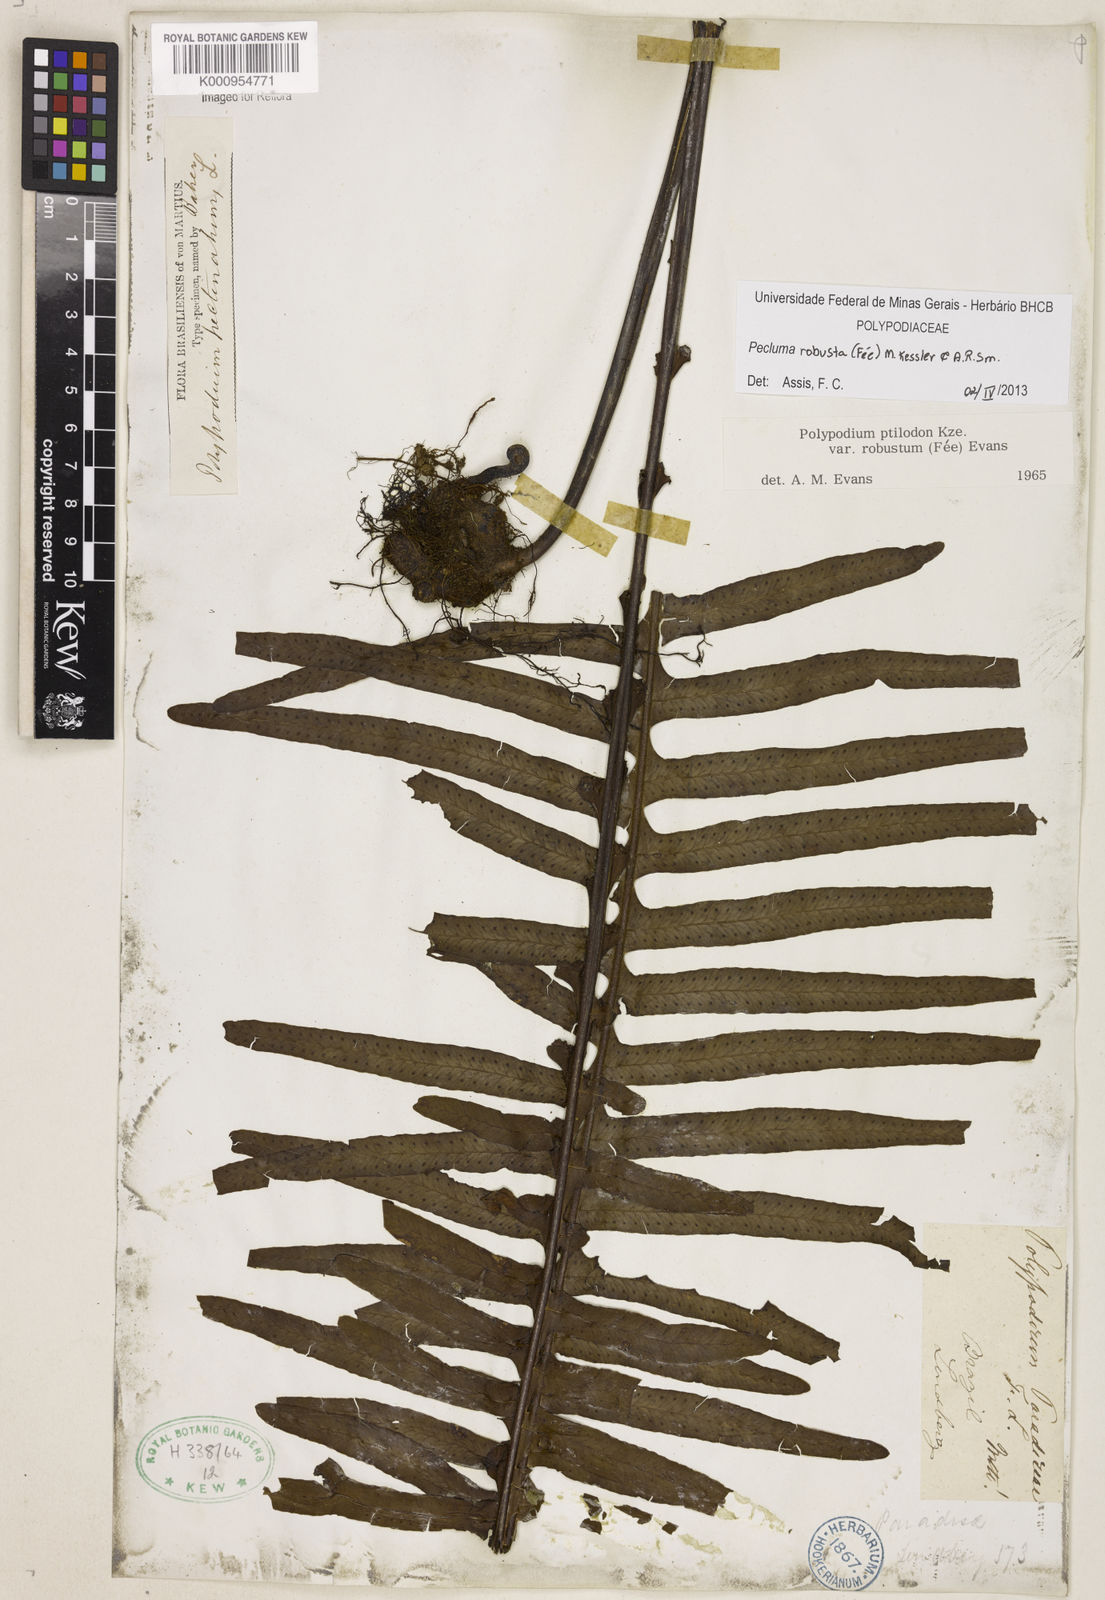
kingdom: Plantae
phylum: Tracheophyta
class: Polypodiopsida
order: Polypodiales
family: Polypodiaceae
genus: Pecluma
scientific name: Pecluma
